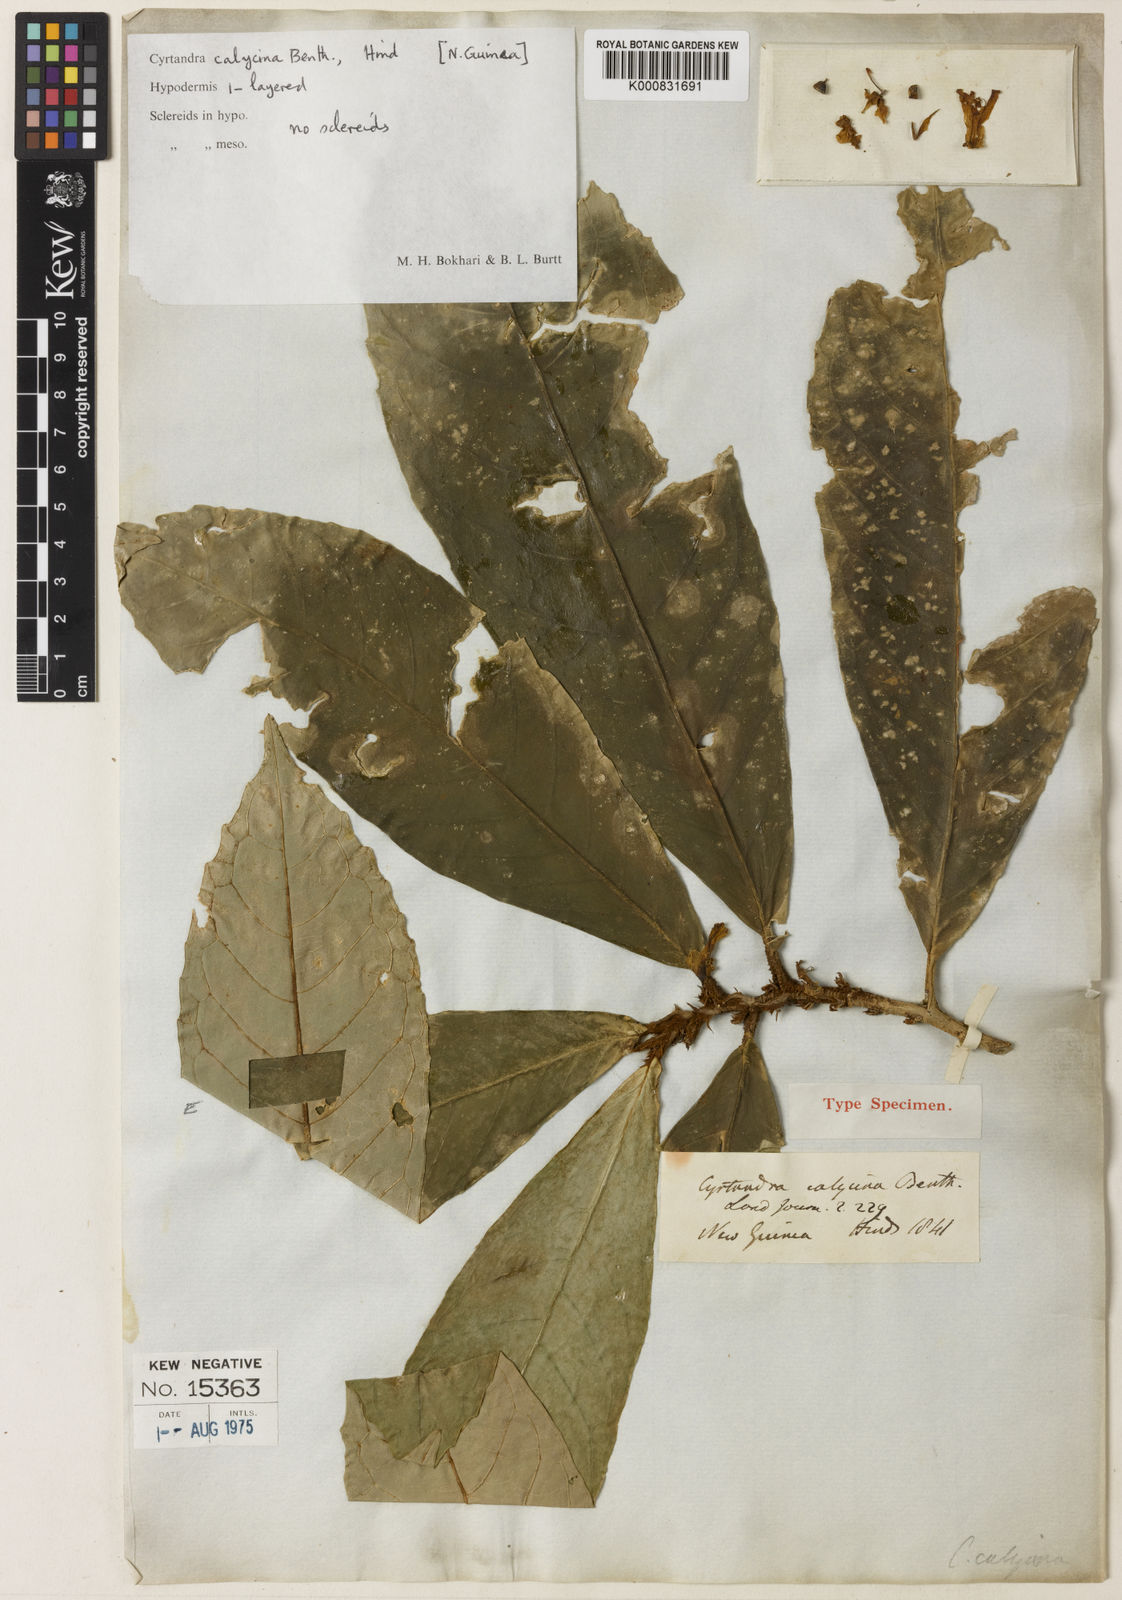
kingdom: Plantae
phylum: Tracheophyta
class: Magnoliopsida
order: Lamiales
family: Gesneriaceae
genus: Cyrtandra
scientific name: Cyrtandra calycina
